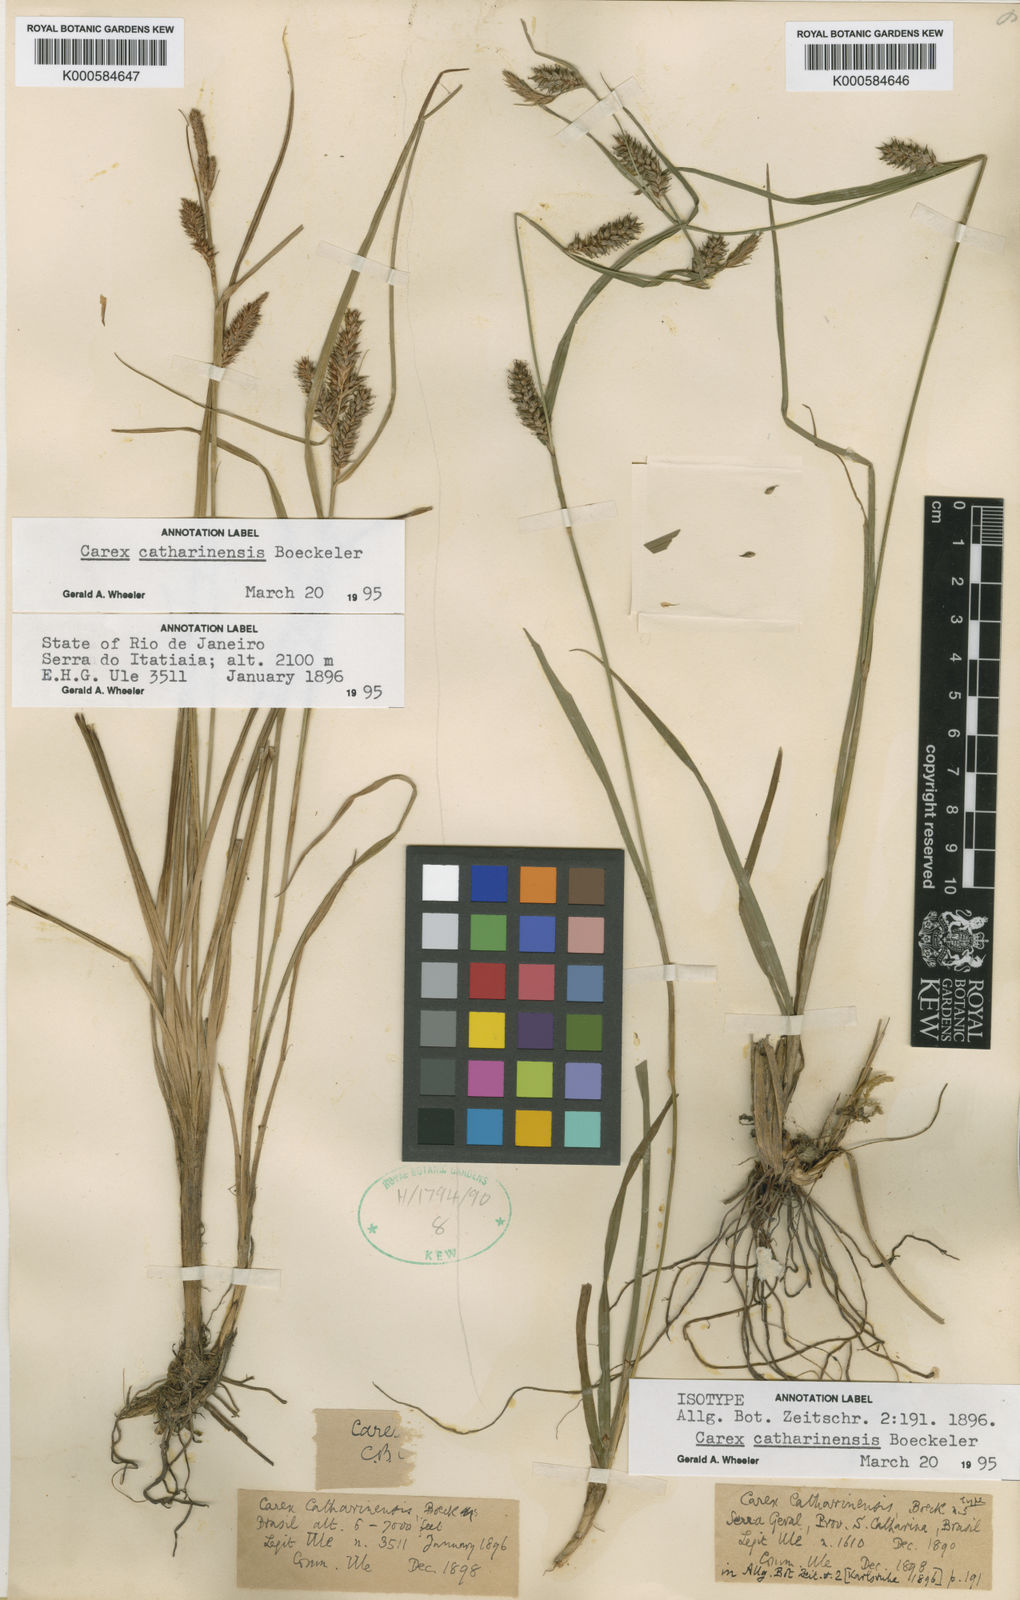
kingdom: Plantae
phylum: Tracheophyta
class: Liliopsida
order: Poales
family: Cyperaceae
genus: Carex
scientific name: Carex catharinensis
